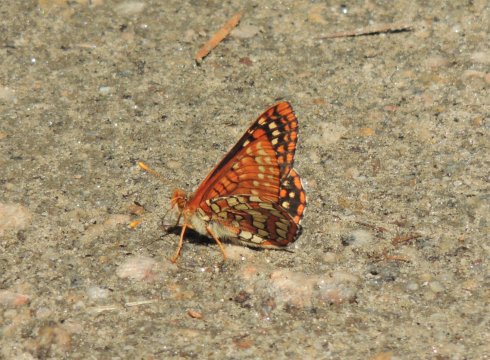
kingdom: Animalia
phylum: Arthropoda
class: Insecta
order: Lepidoptera
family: Nymphalidae
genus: Occidryas
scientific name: Occidryas anicia
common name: Anicia Checkerspot
